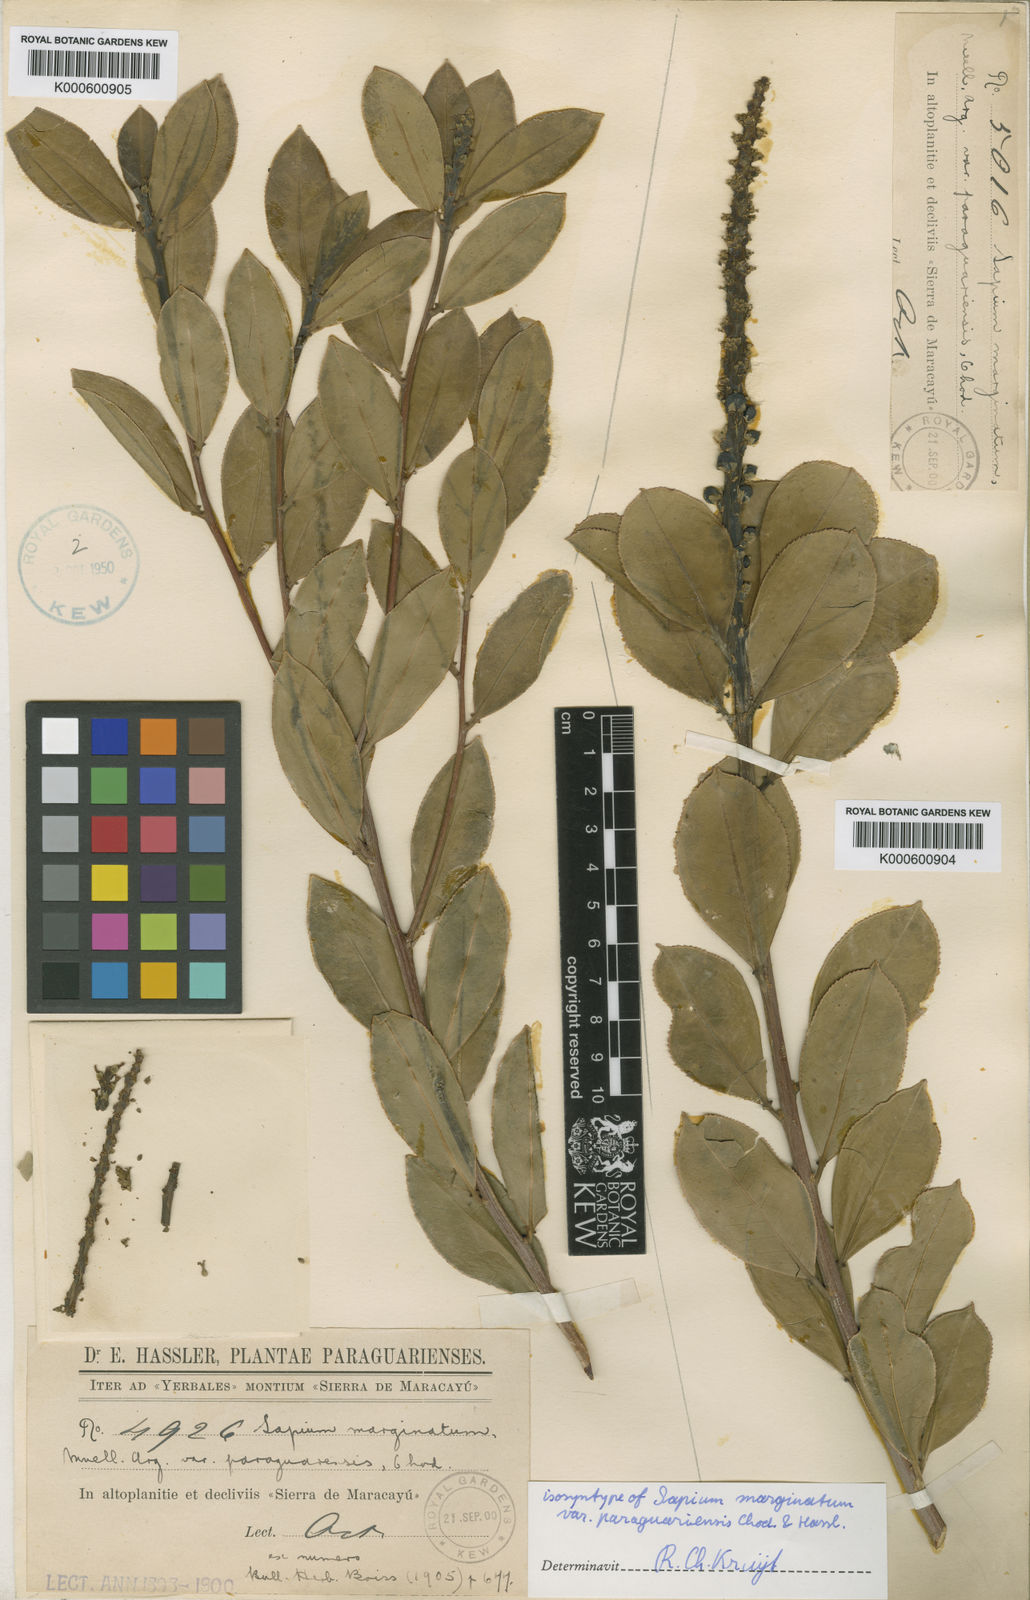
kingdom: Plantae
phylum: Tracheophyta
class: Magnoliopsida
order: Malpighiales
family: Euphorbiaceae
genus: Sapium
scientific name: Sapium
